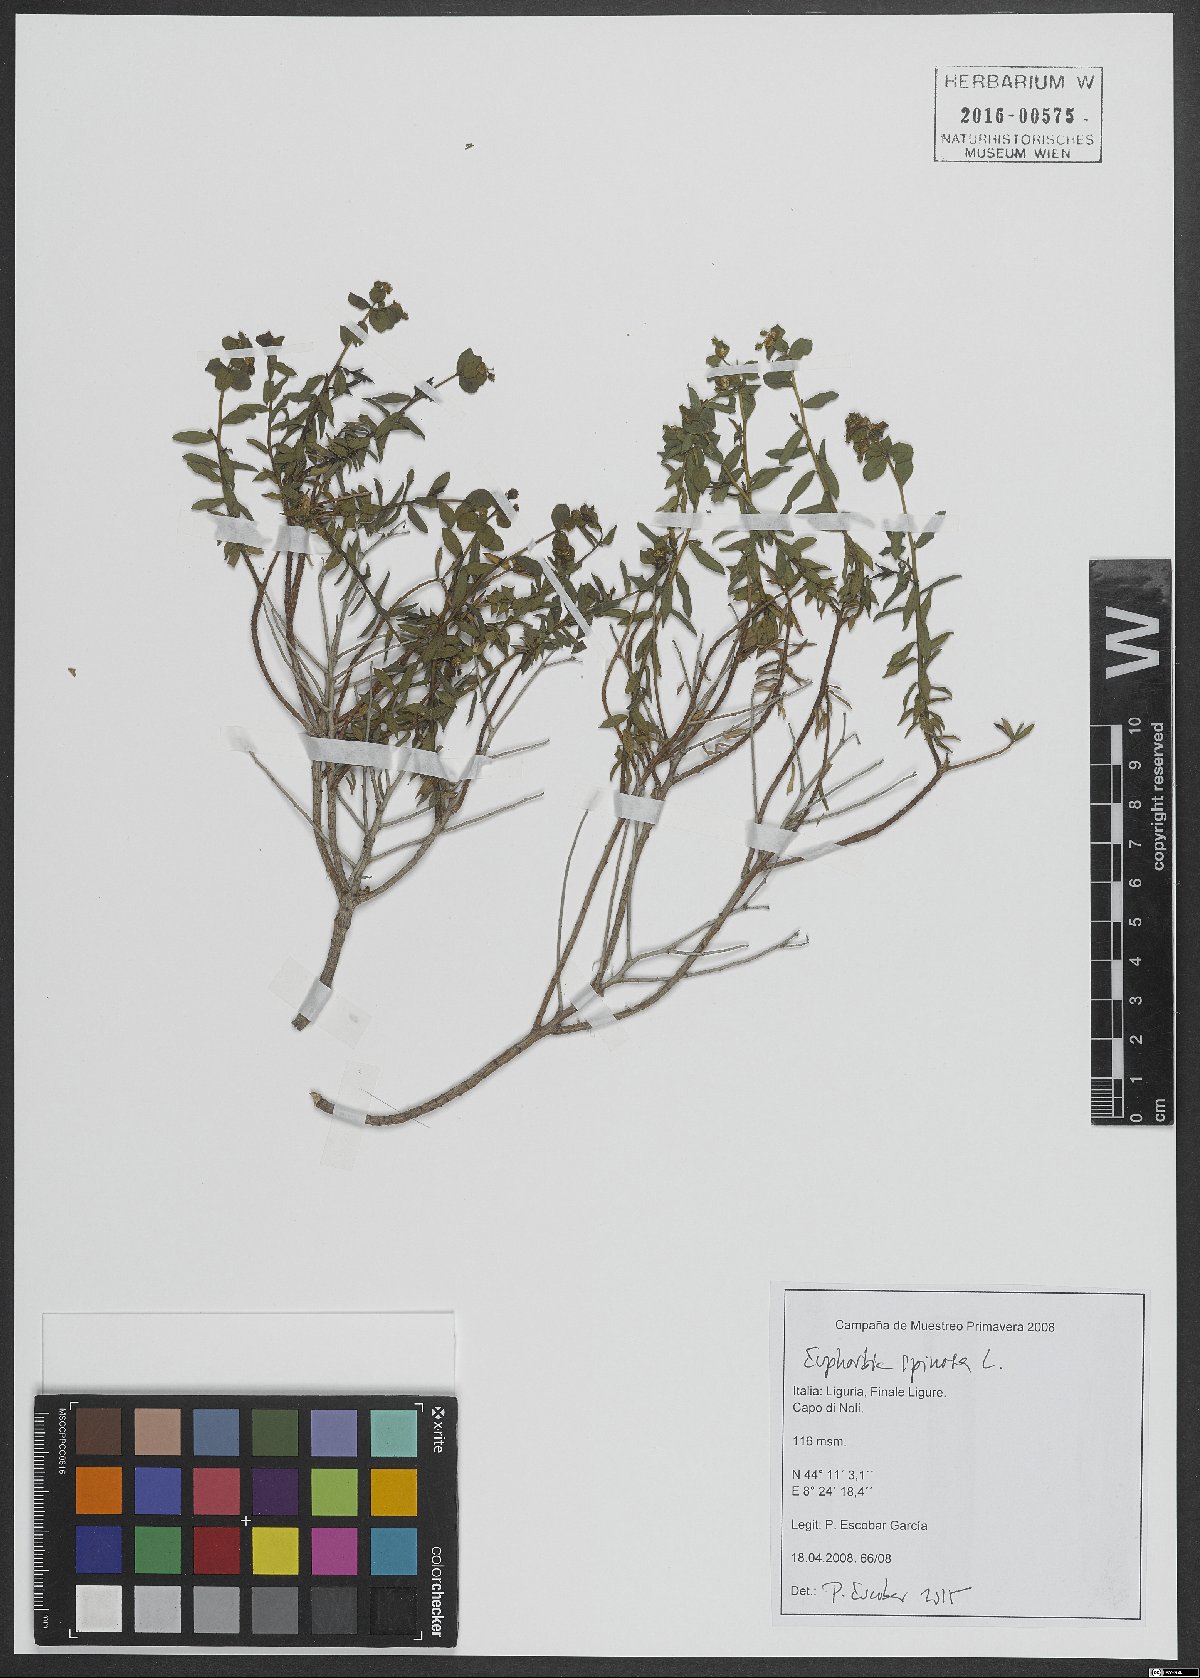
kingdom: Plantae
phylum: Tracheophyta
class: Magnoliopsida
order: Malpighiales
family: Euphorbiaceae
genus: Euphorbia
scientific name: Euphorbia spinosa
